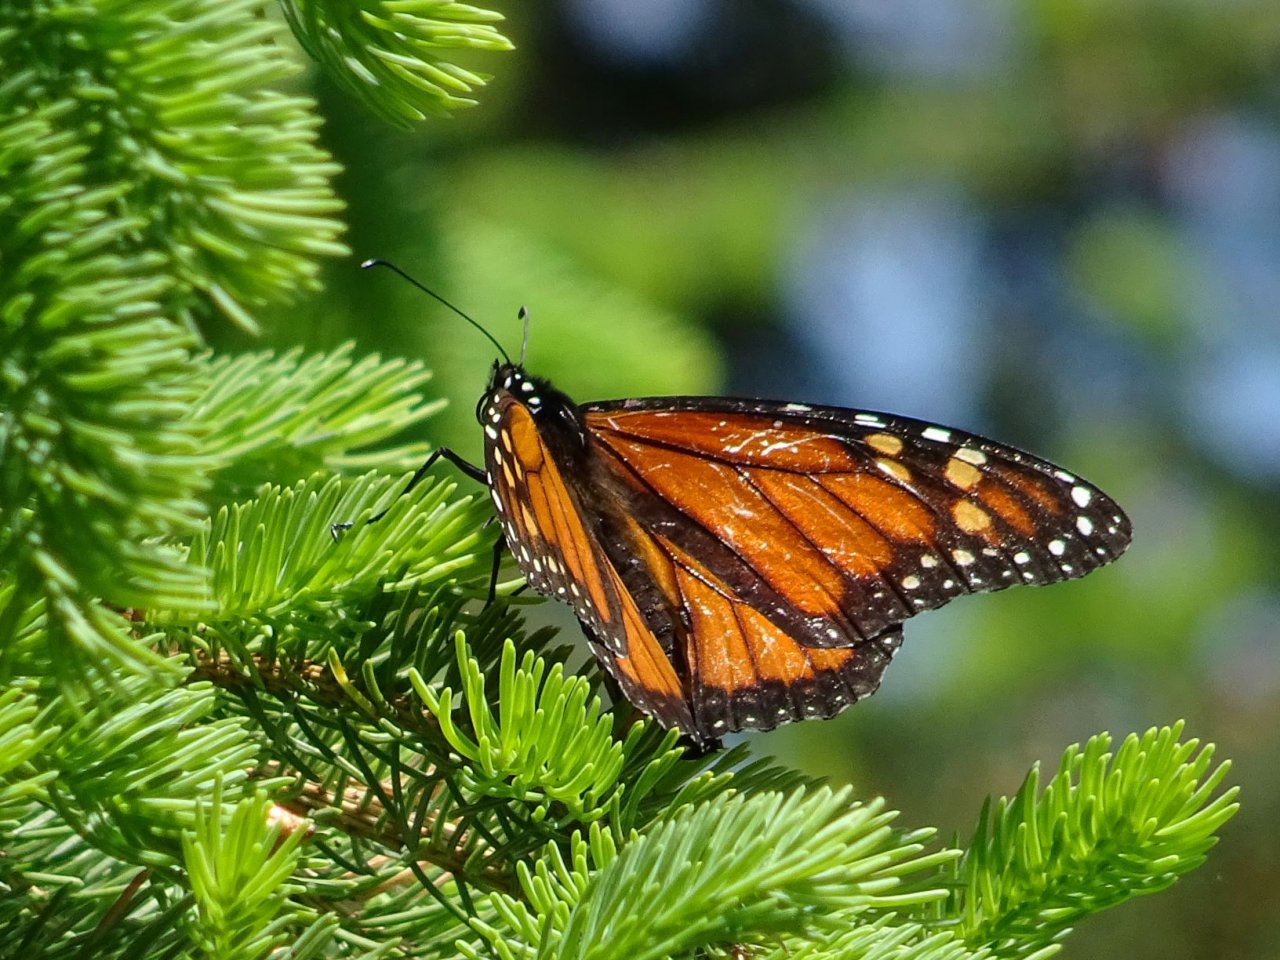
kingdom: Animalia
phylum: Arthropoda
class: Insecta
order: Lepidoptera
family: Nymphalidae
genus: Danaus
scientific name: Danaus plexippus
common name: Monarch
